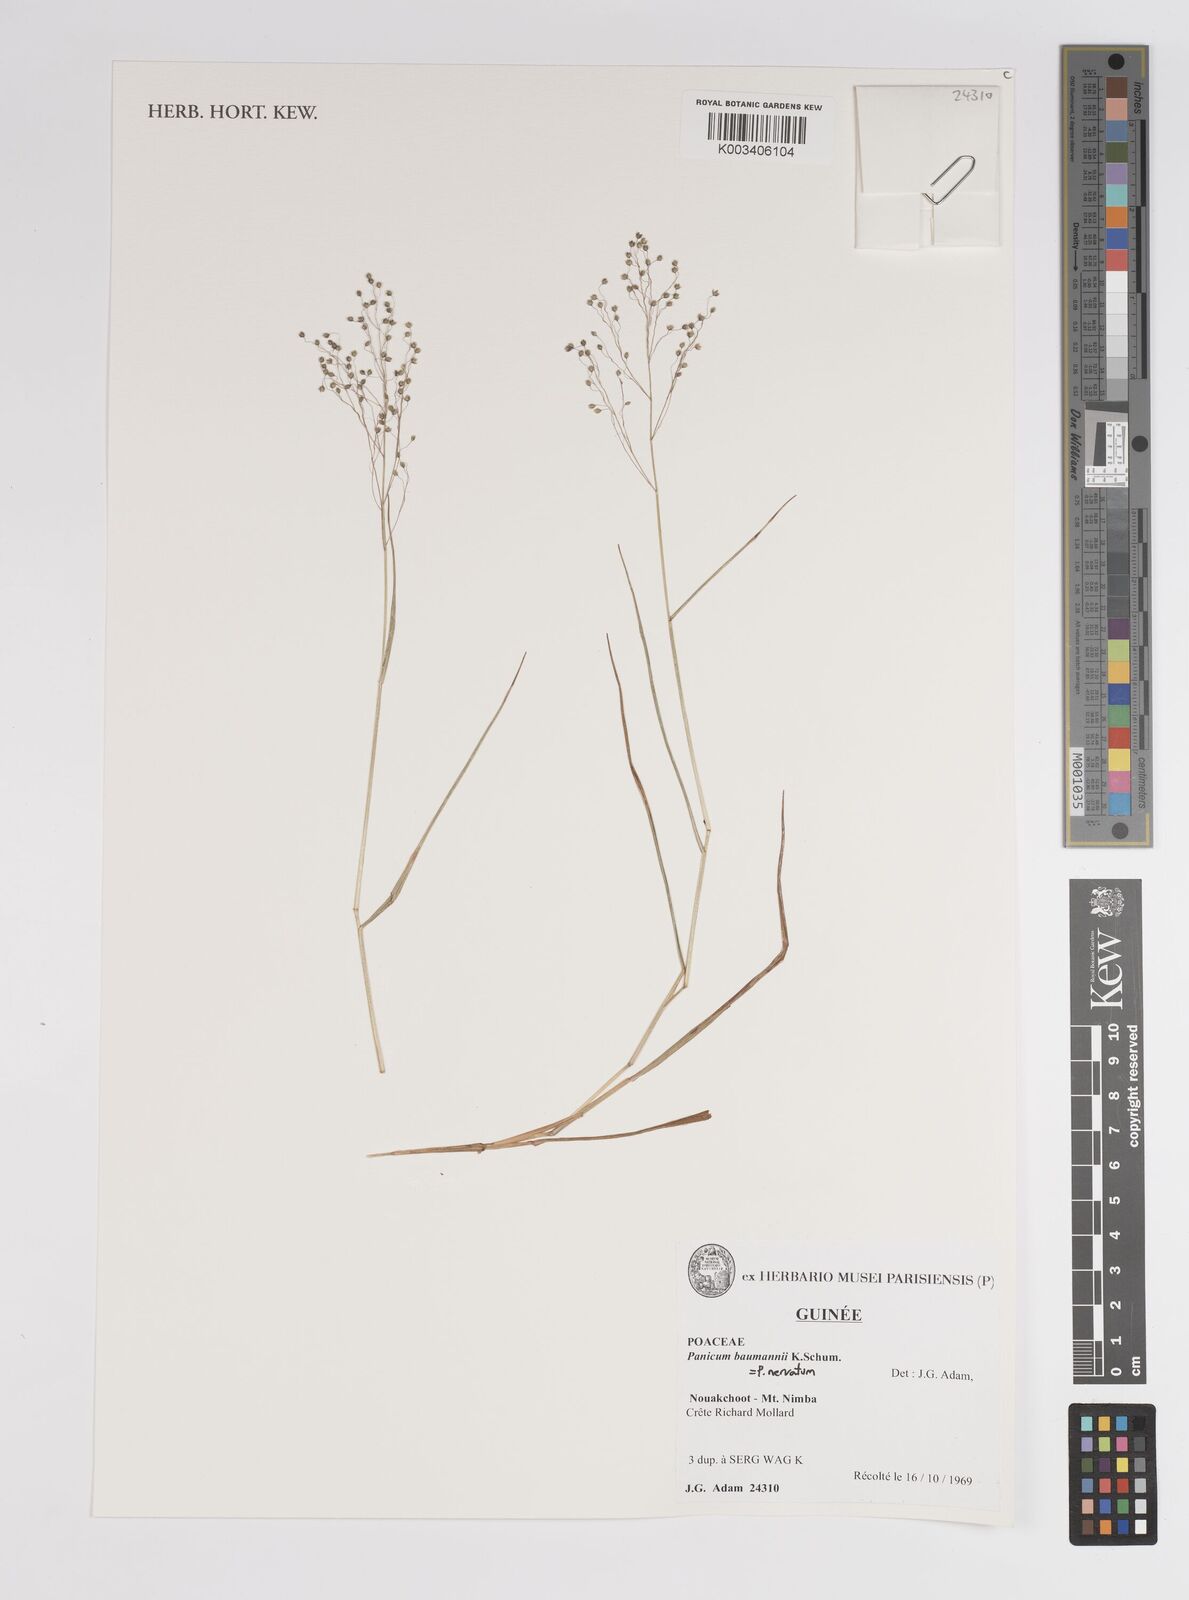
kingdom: Plantae
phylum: Tracheophyta
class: Liliopsida
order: Poales
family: Poaceae
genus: Trichanthecium
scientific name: Trichanthecium nervatum
